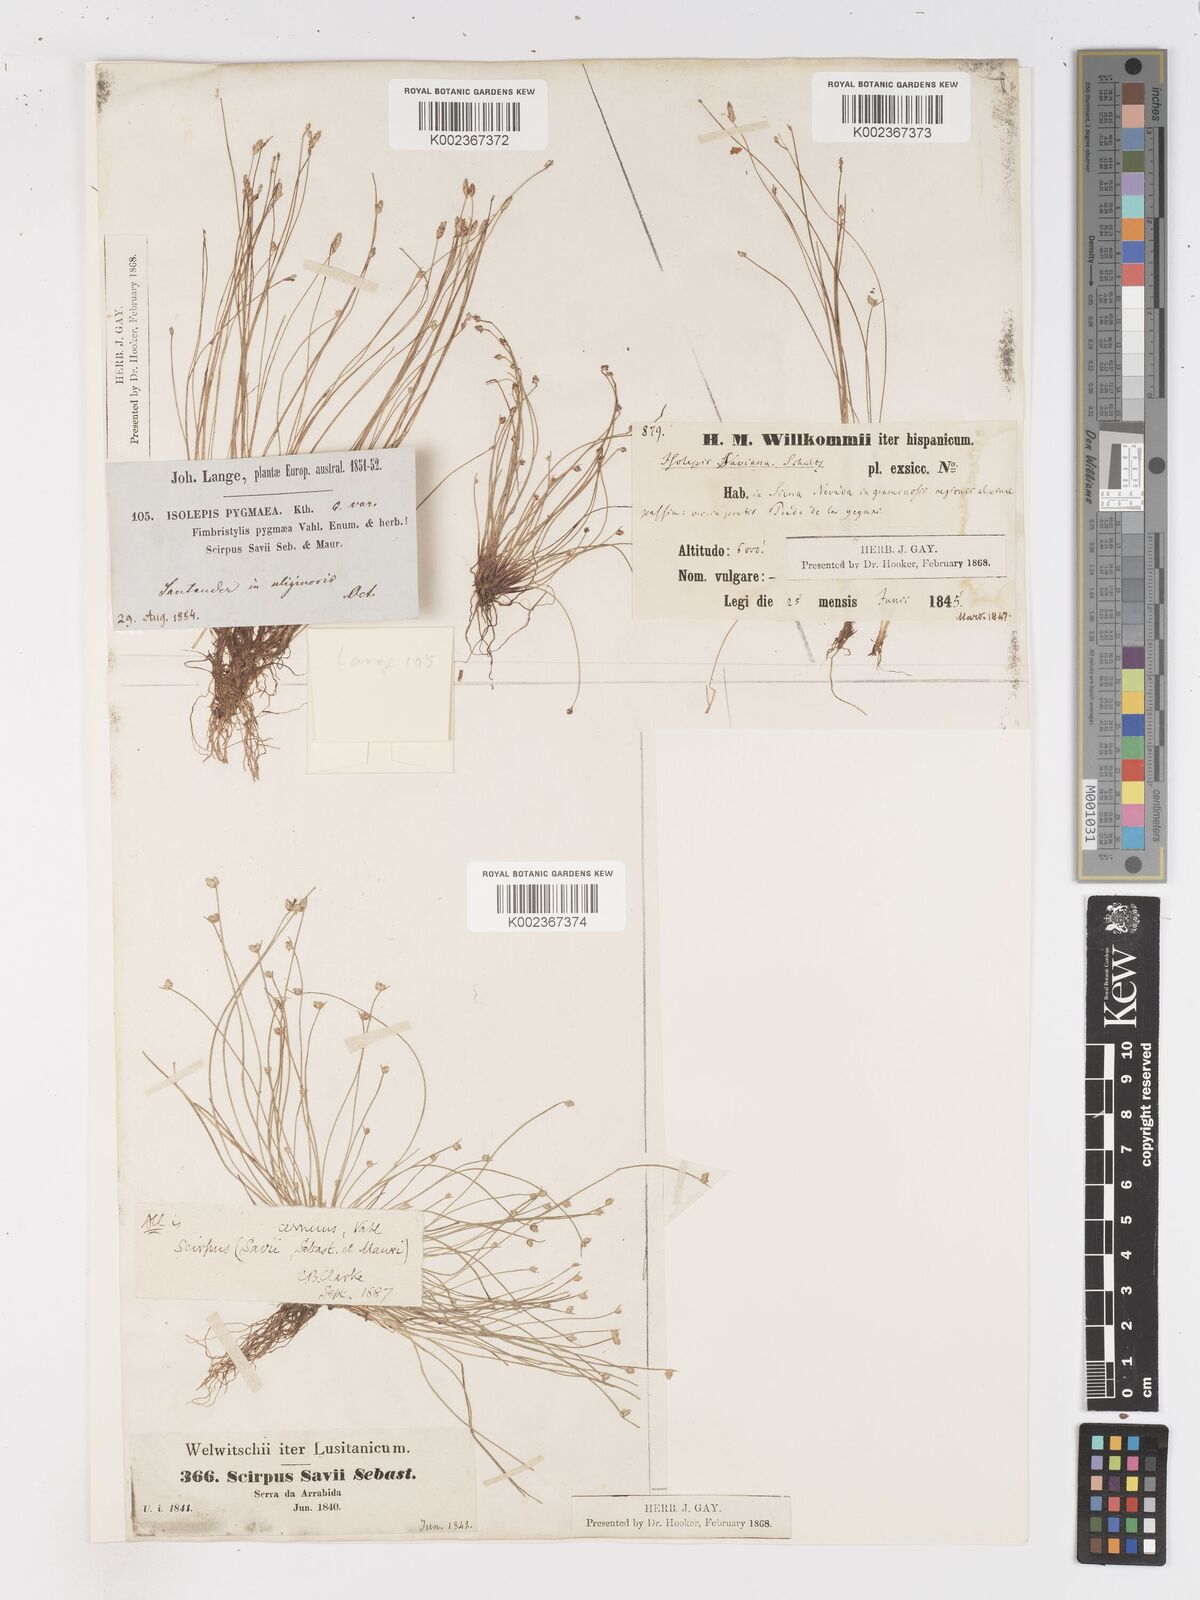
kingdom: Plantae
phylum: Tracheophyta
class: Liliopsida
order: Poales
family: Cyperaceae
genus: Isolepis
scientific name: Isolepis cernua
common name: Slender club-rush
